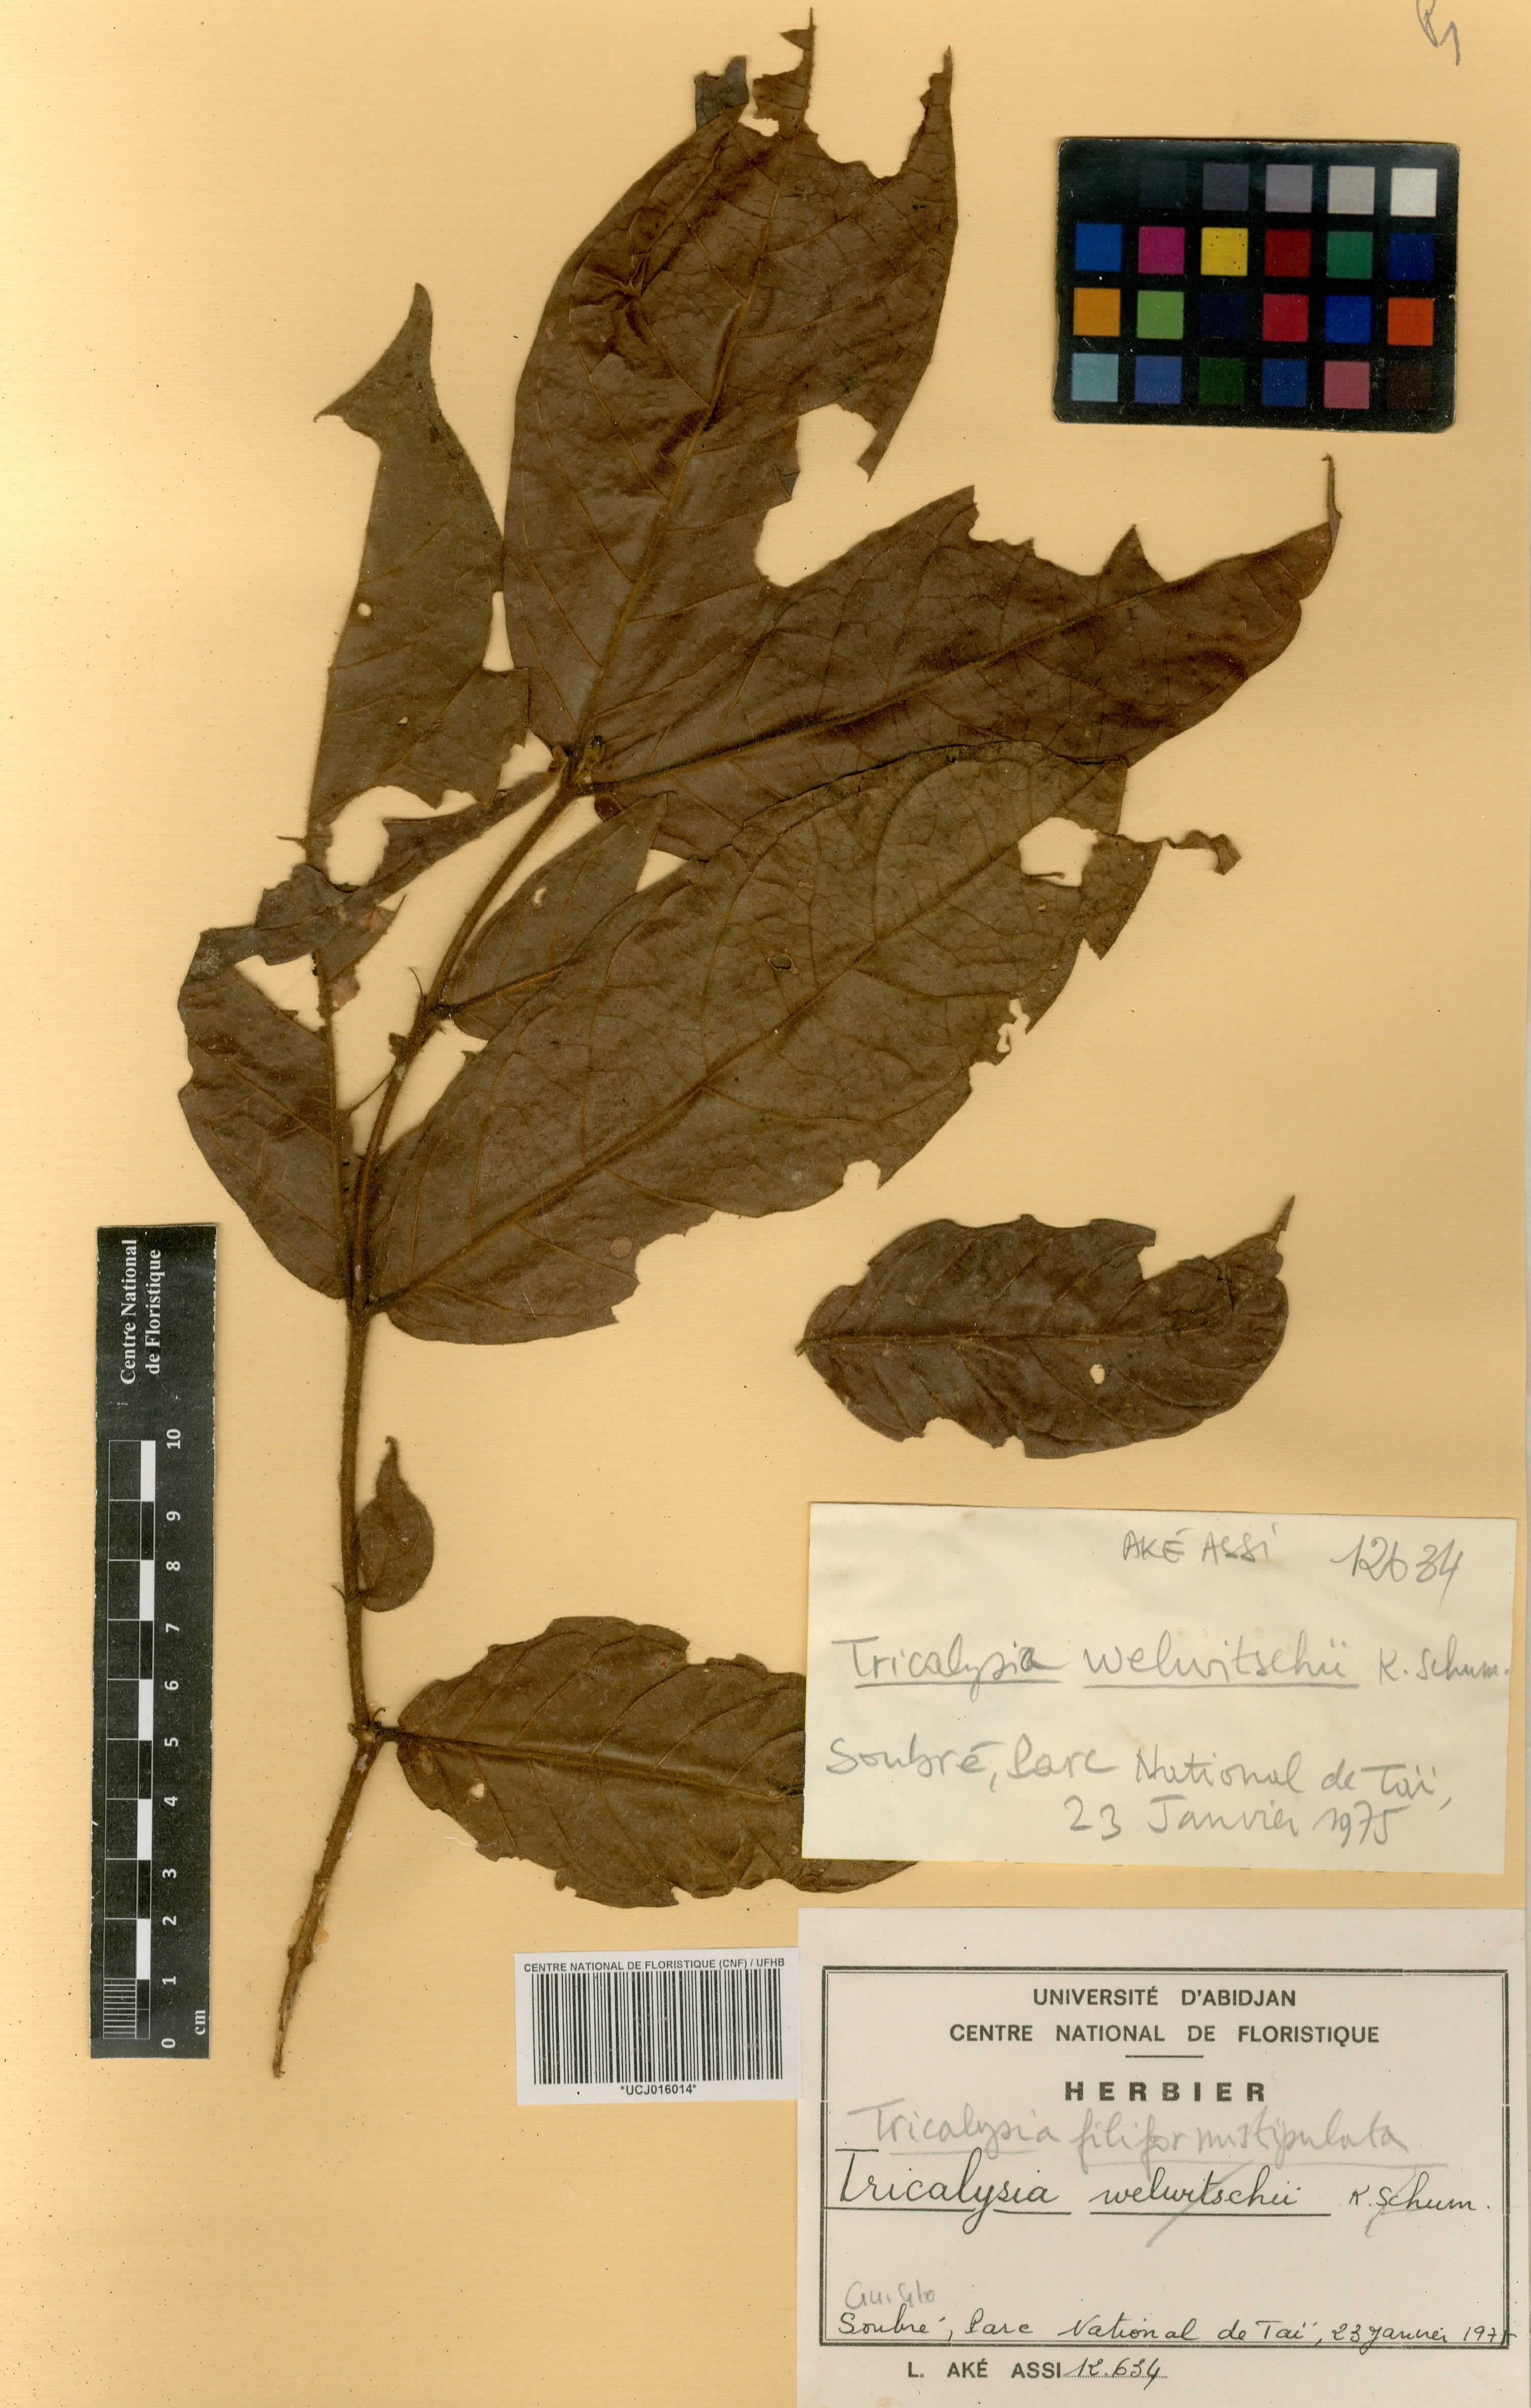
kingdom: Plantae
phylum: Tracheophyta
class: Magnoliopsida
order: Gentianales
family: Rubiaceae
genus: Empogona
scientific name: Empogona filiformistipulata
